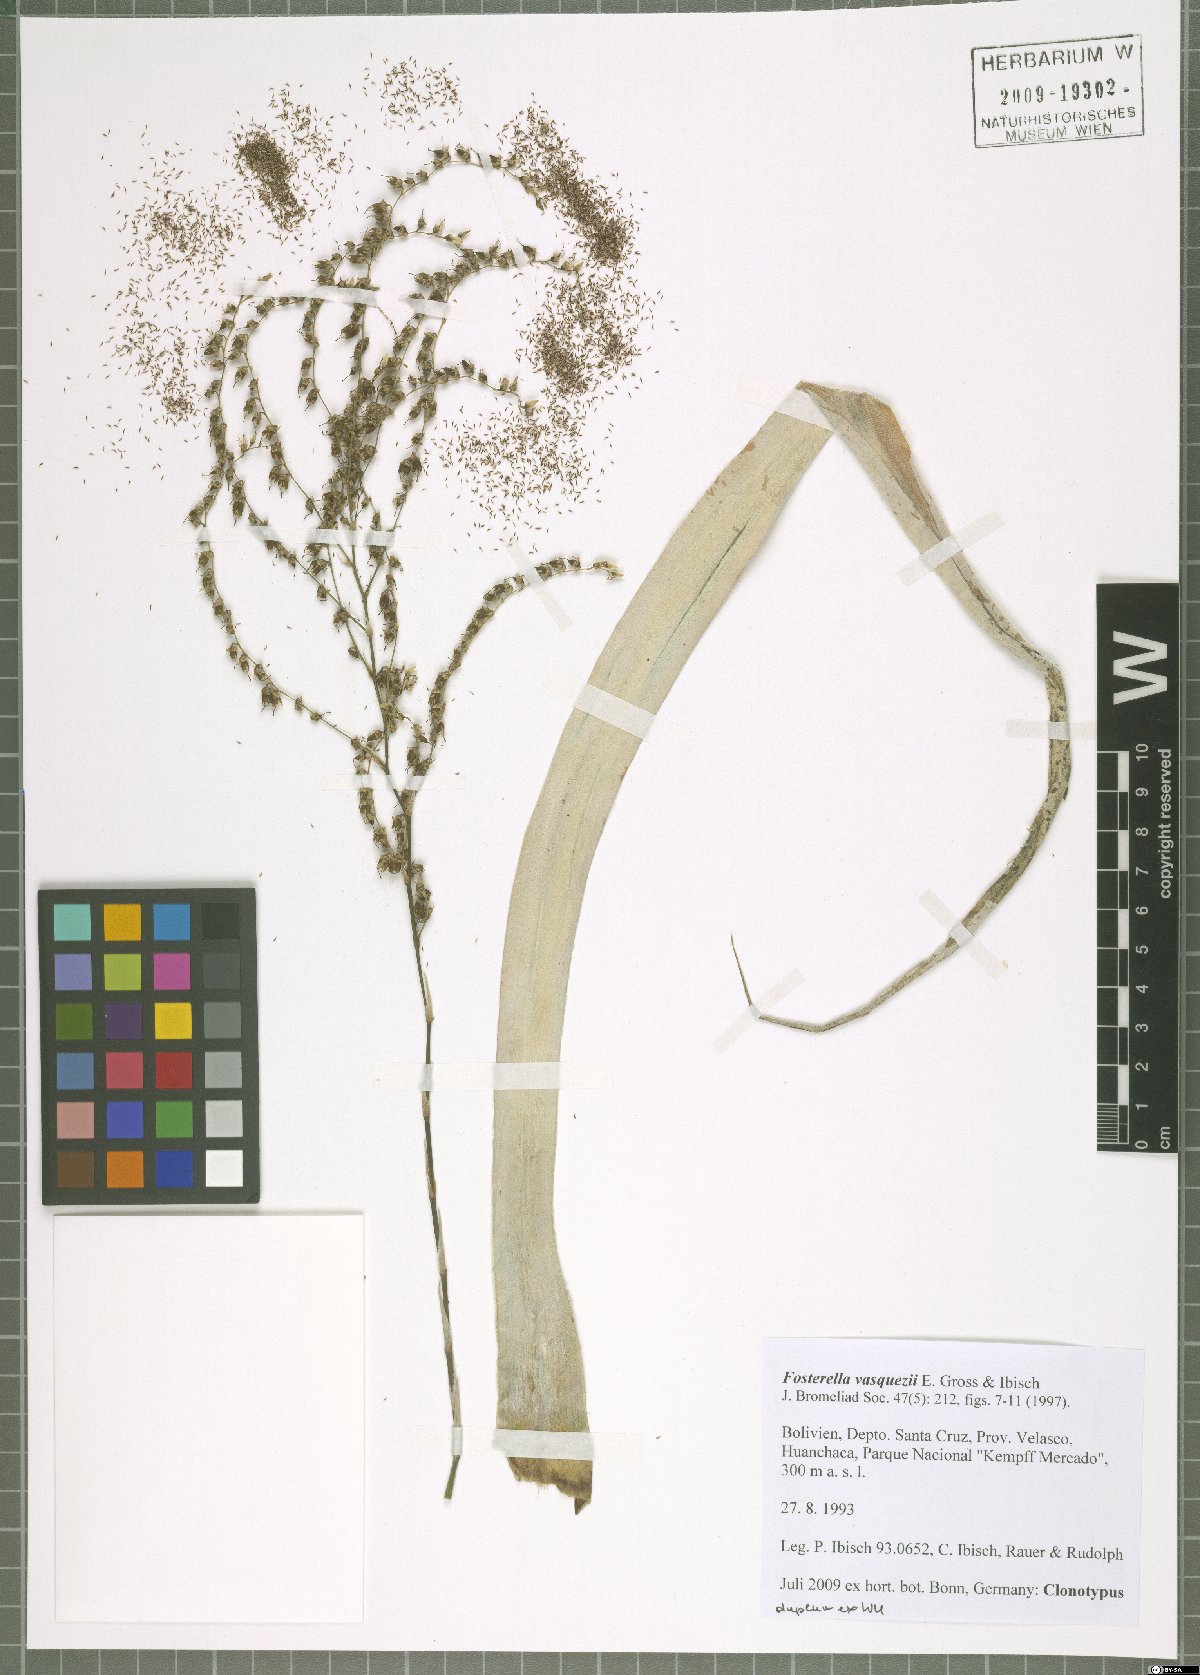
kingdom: Plantae
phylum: Tracheophyta
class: Liliopsida
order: Poales
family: Bromeliaceae
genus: Fosterella
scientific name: Fosterella vasquezii
